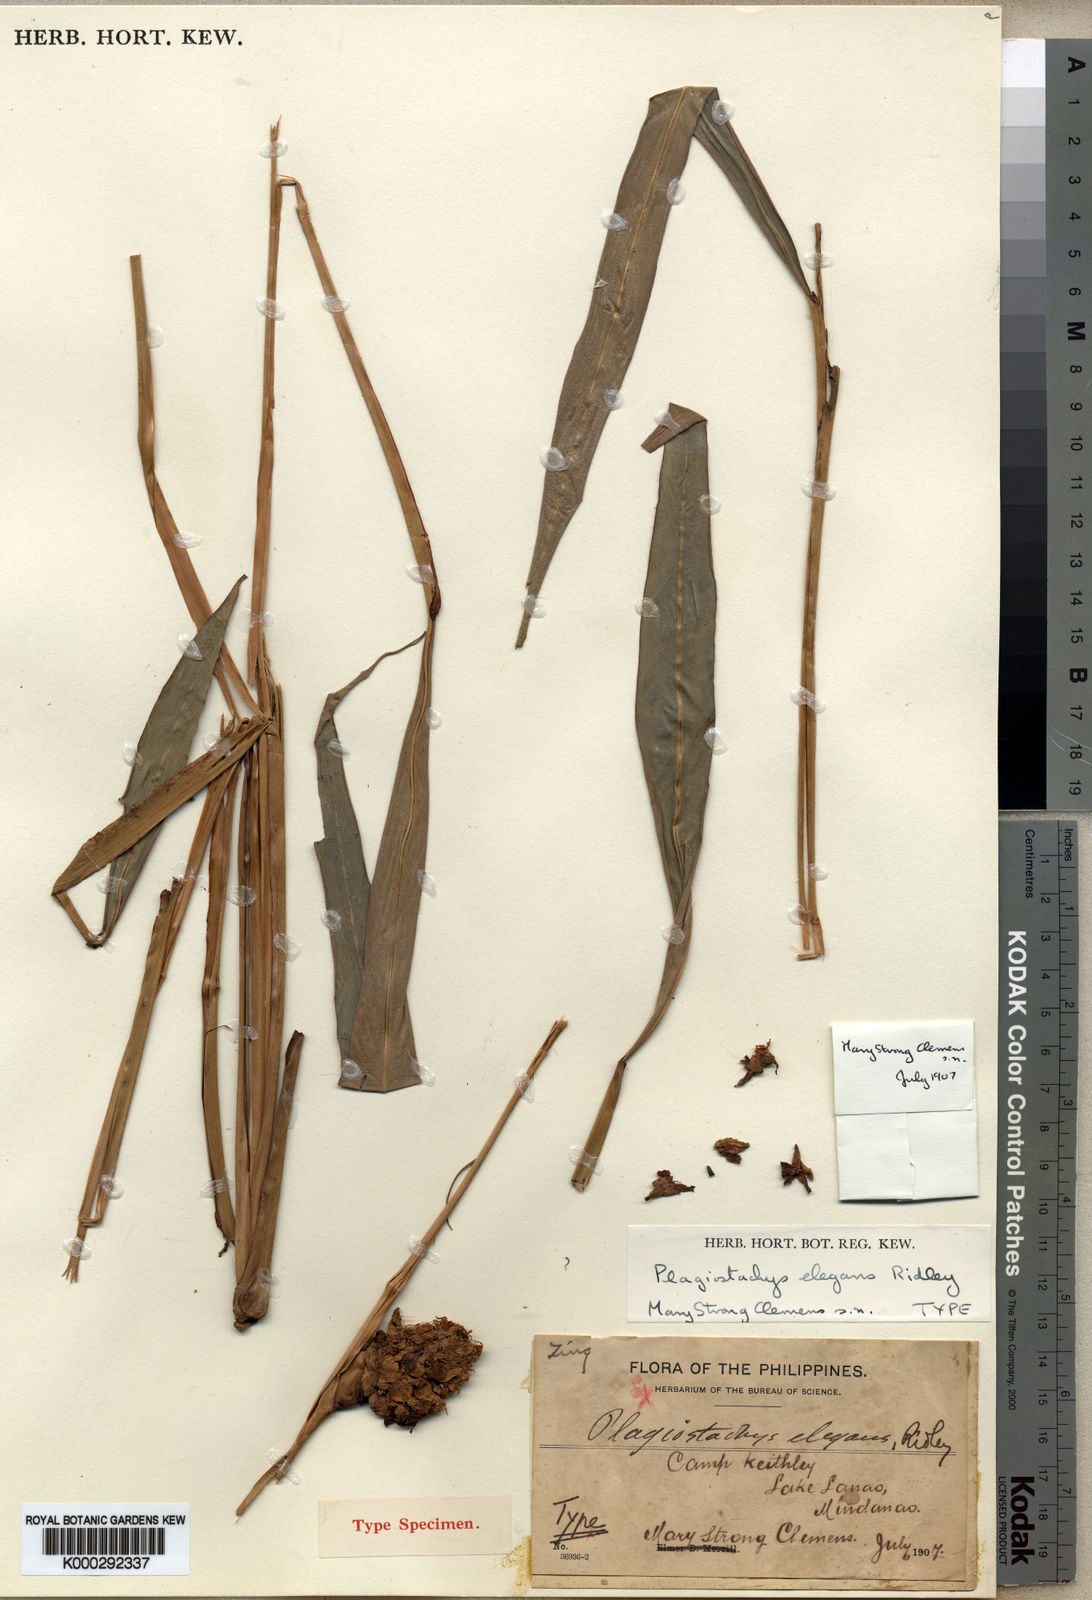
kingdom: Plantae
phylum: Tracheophyta
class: Liliopsida
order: Zingiberales
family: Zingiberaceae
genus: Plagiostachys
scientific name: Plagiostachys elegans
